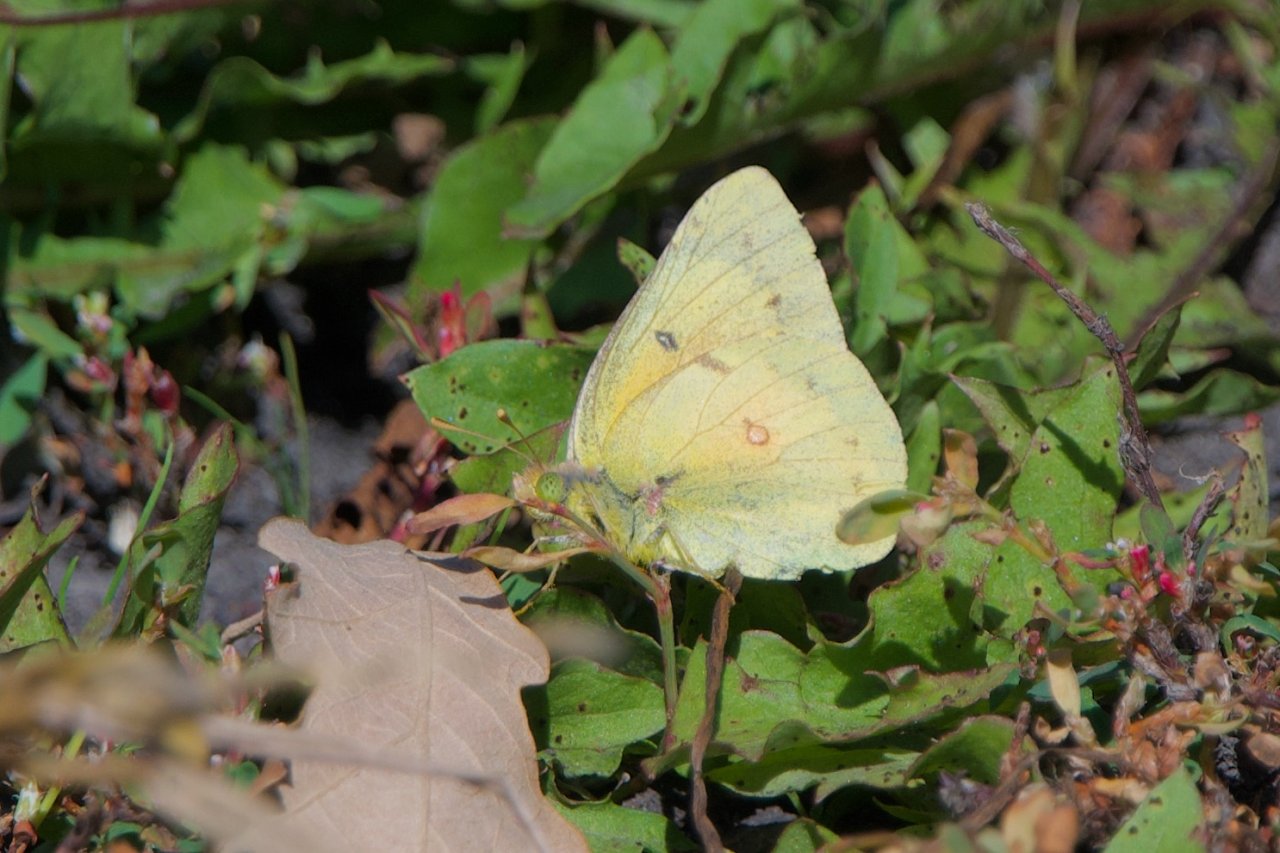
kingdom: Animalia
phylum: Arthropoda
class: Insecta
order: Lepidoptera
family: Pieridae
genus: Colias
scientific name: Colias eurytheme
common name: Orange Sulphur
